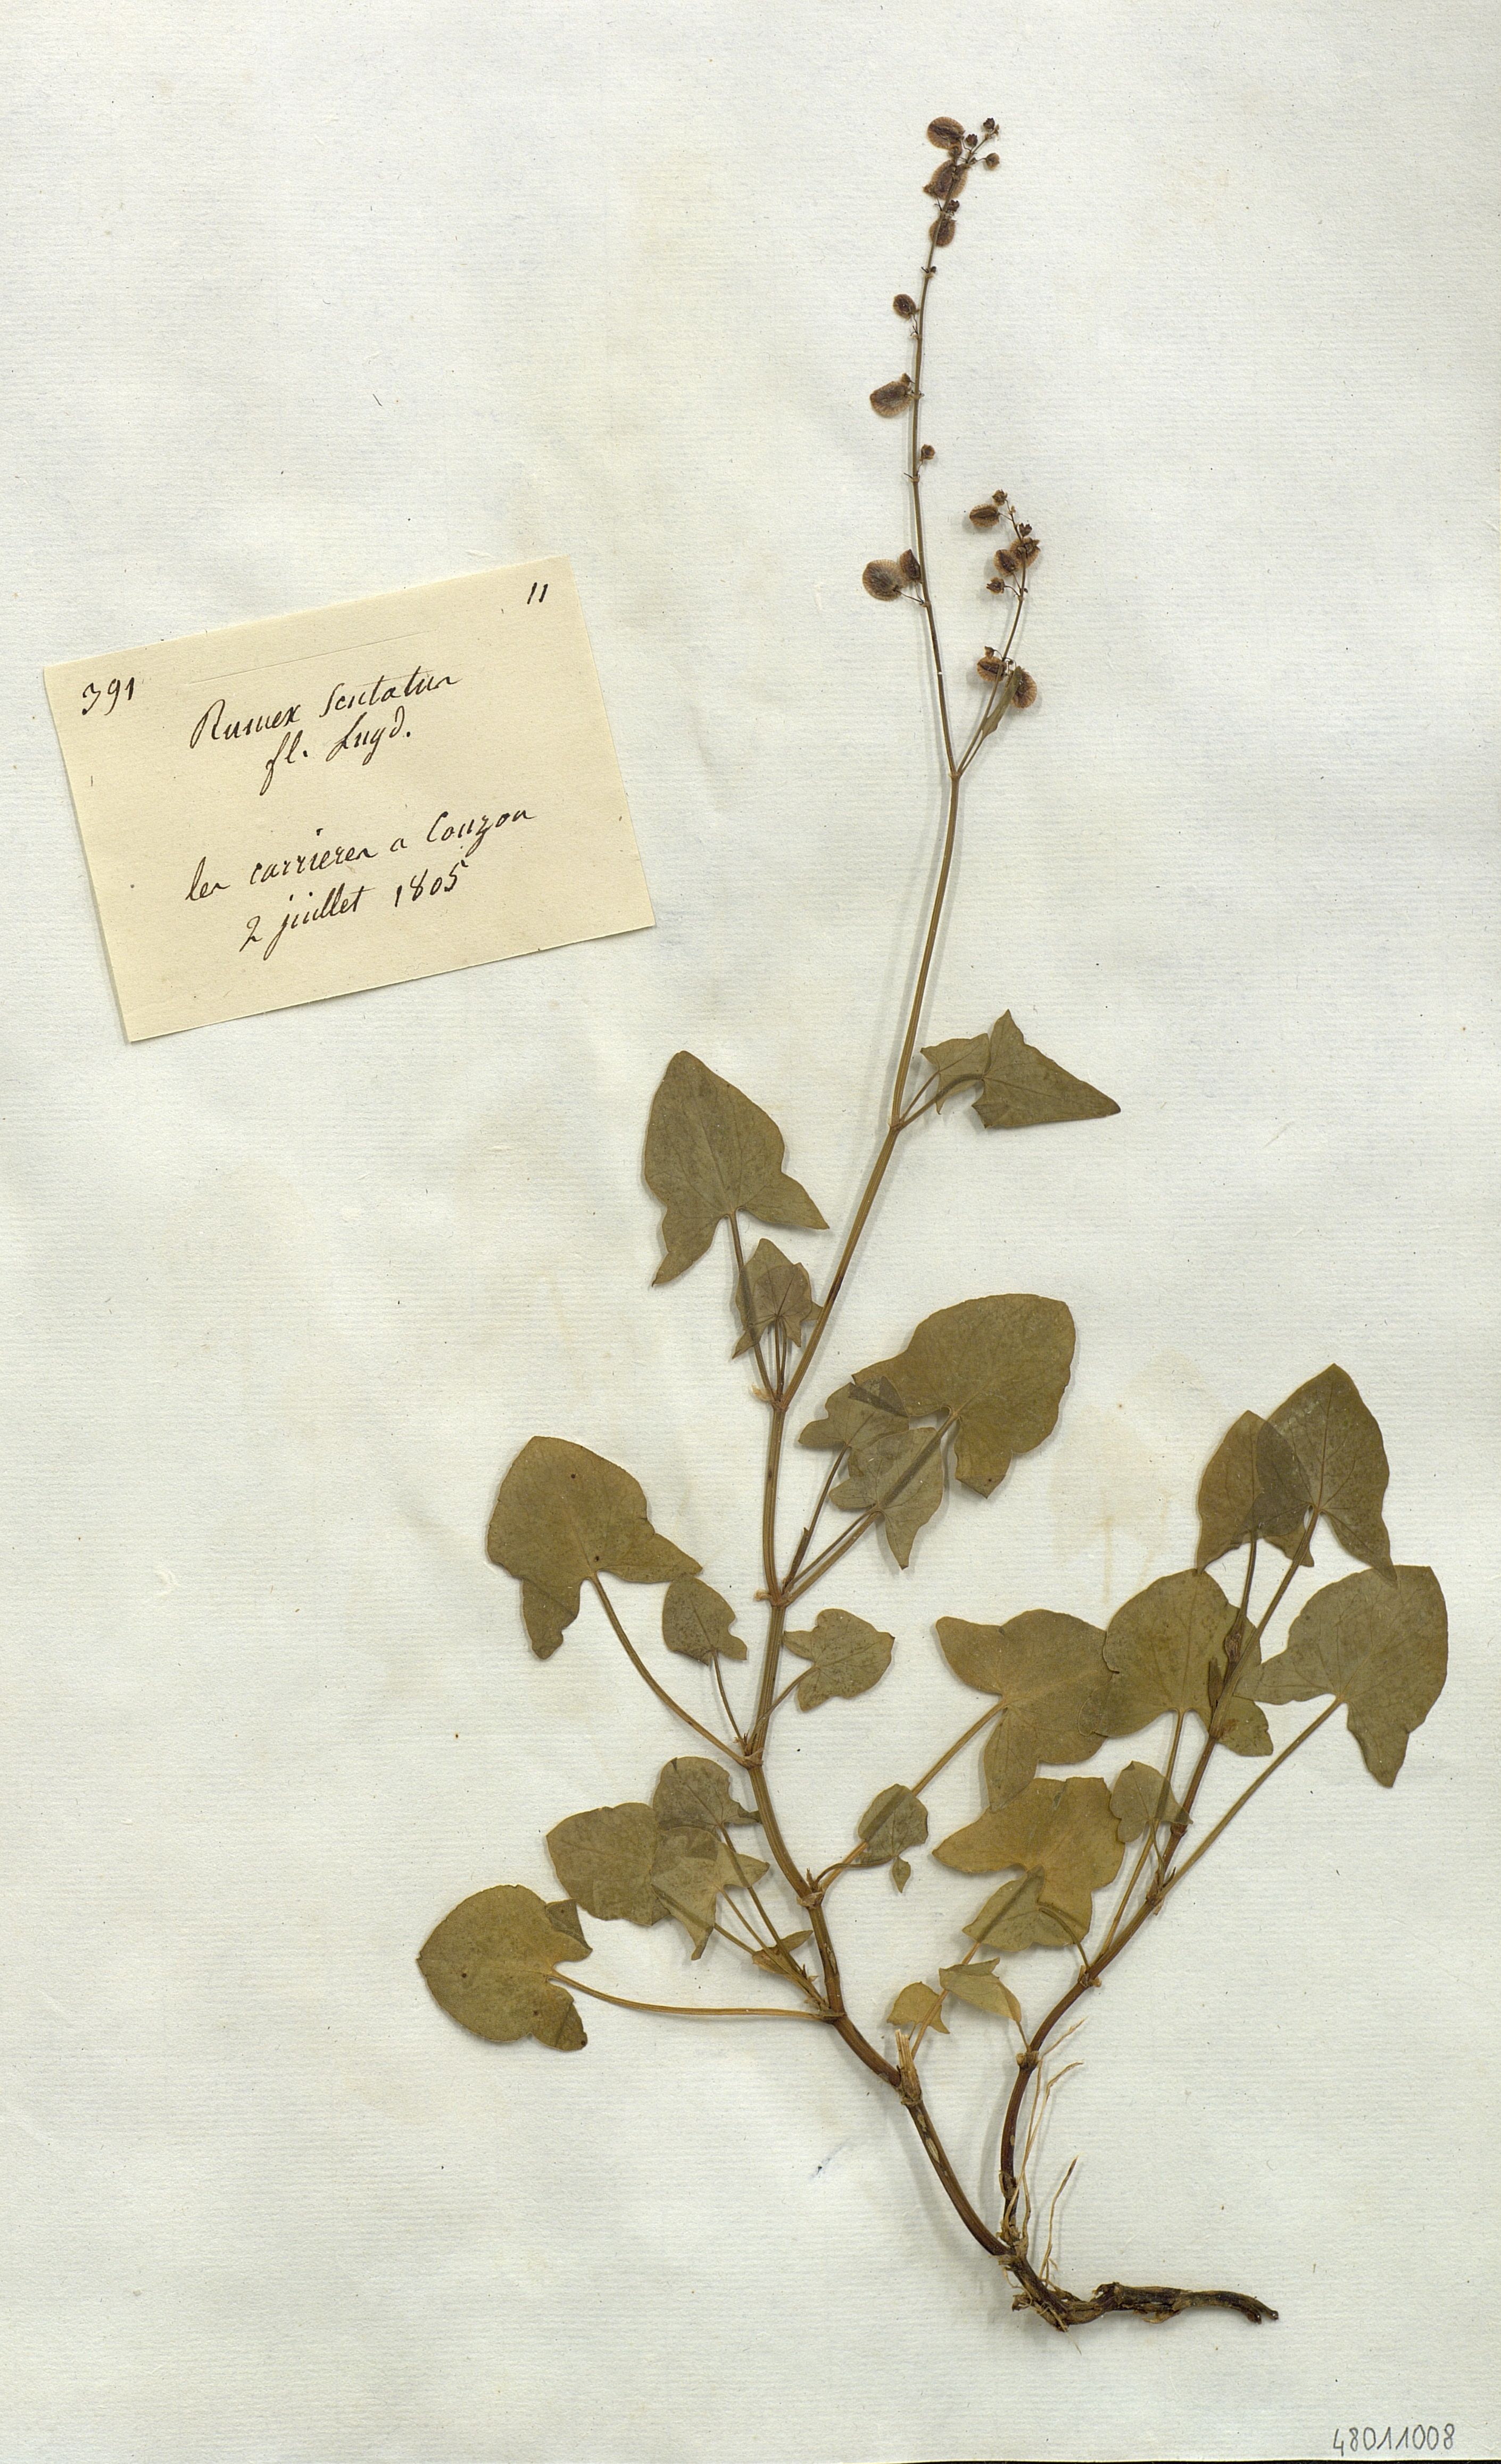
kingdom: Plantae
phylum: Tracheophyta
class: Magnoliopsida
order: Caryophyllales
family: Polygonaceae
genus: Rumex
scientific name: Rumex scutatus
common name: French sorrel
